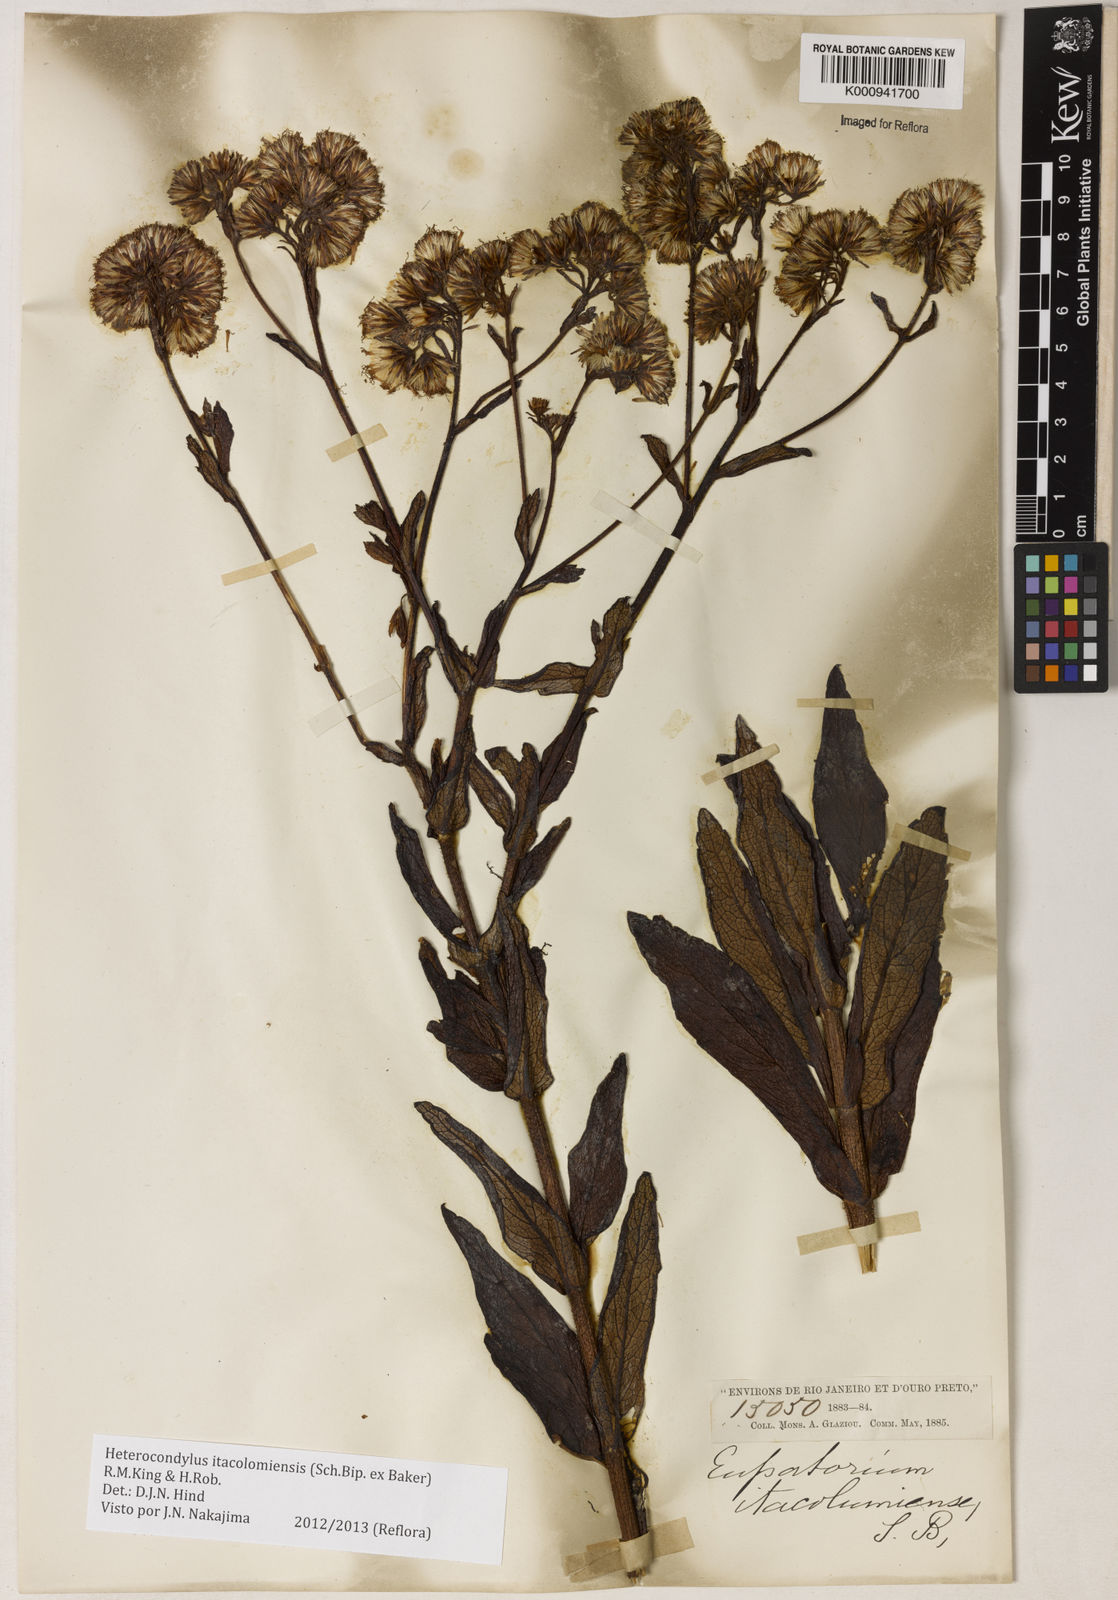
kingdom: Plantae
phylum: Tracheophyta
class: Magnoliopsida
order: Asterales
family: Asteraceae
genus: Heterocondylus
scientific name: Heterocondylus
